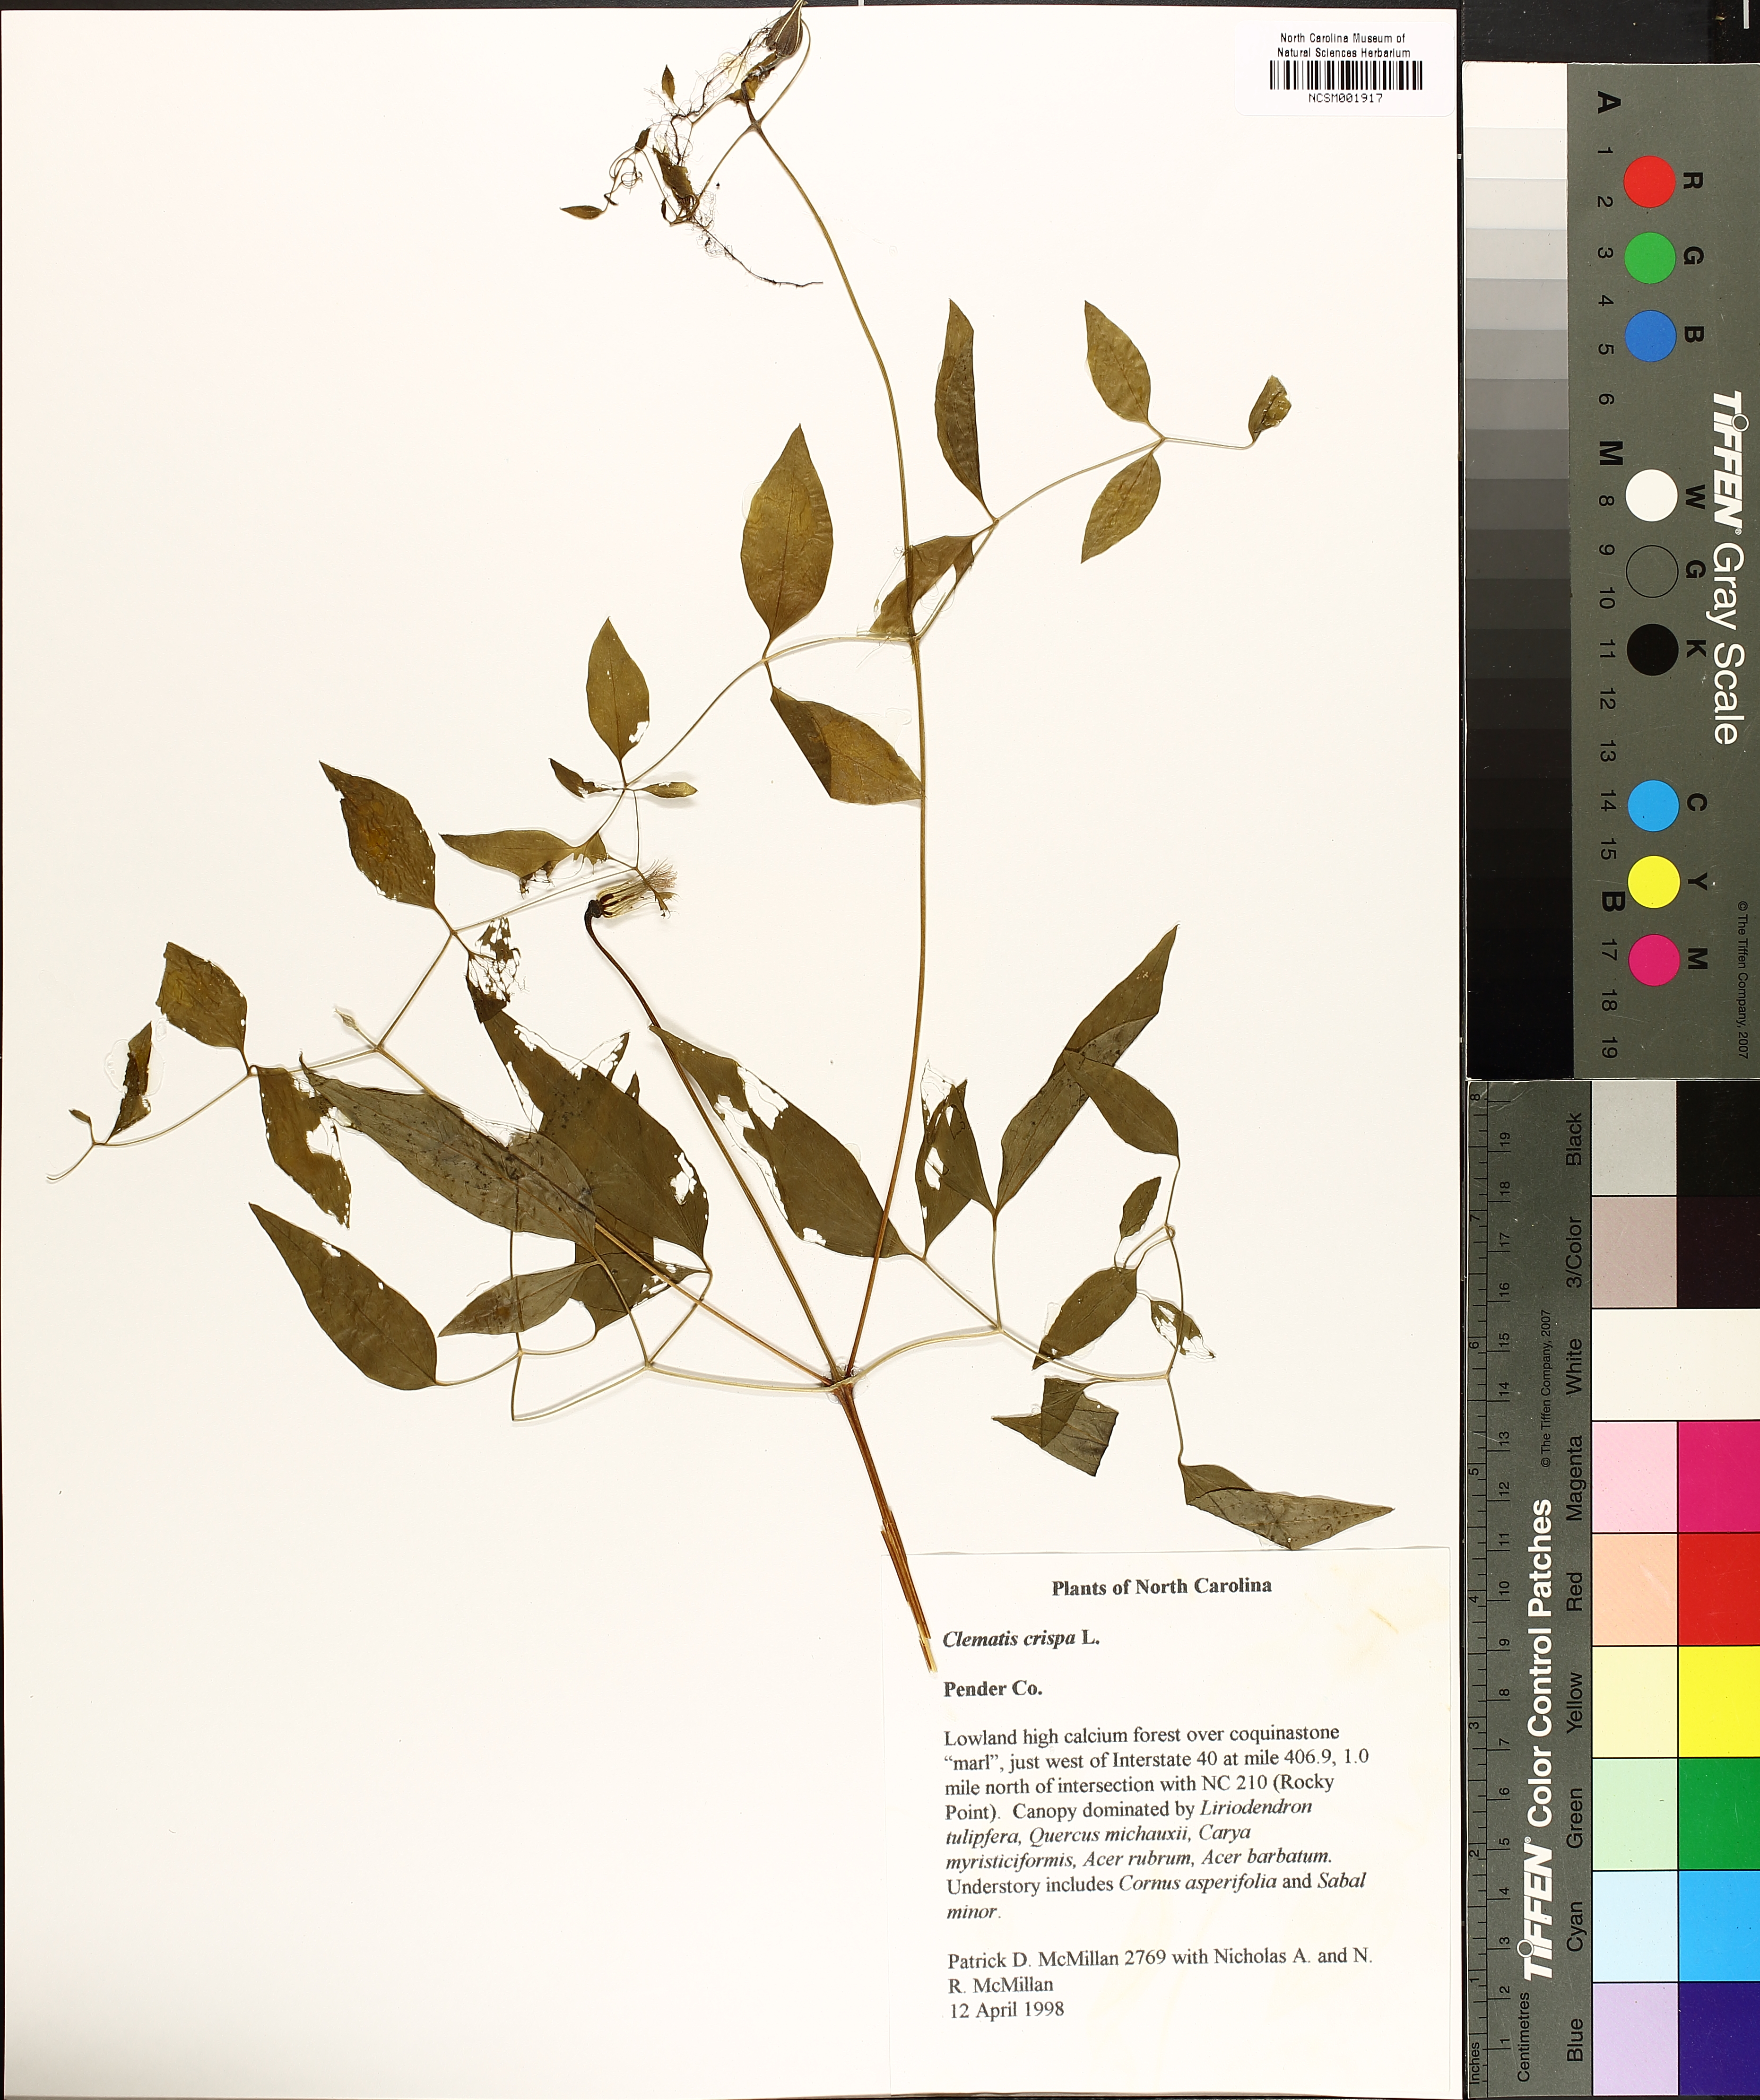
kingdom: Plantae
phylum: Tracheophyta
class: Magnoliopsida
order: Ranunculales
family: Ranunculaceae
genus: Clematis
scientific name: Clematis crispa
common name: Curly clematis
